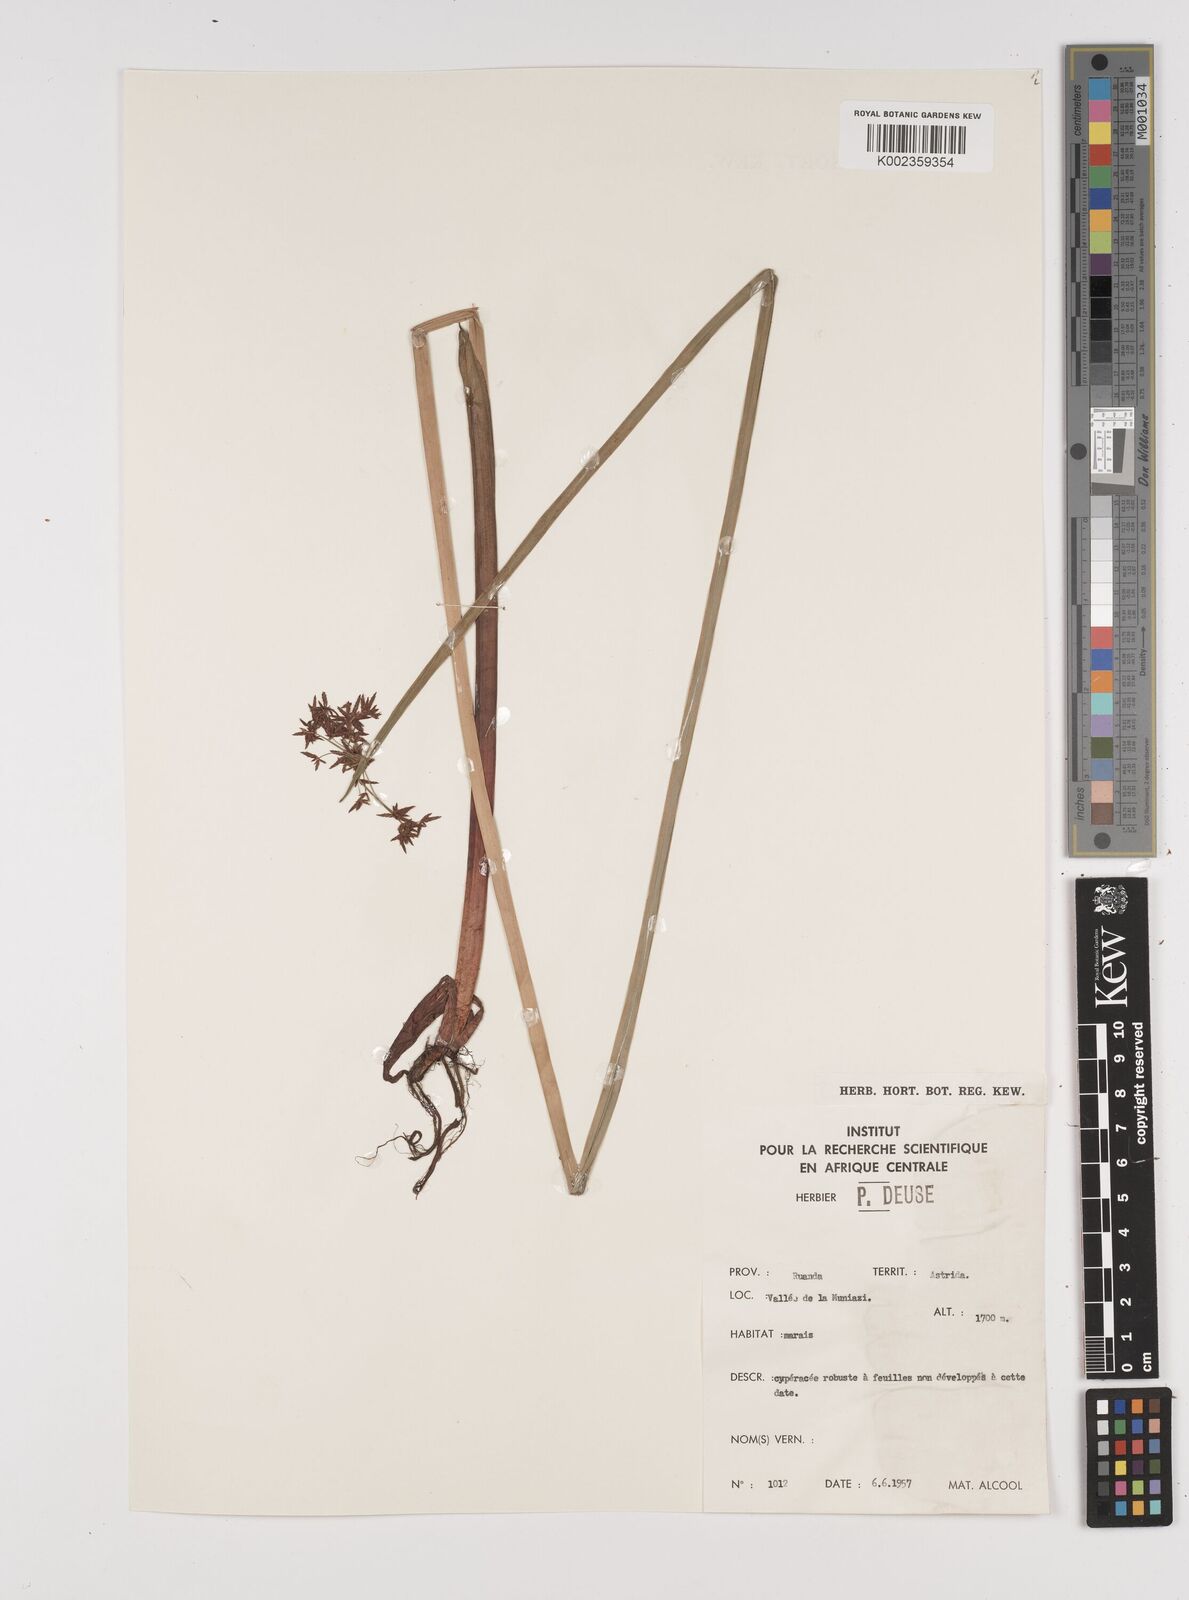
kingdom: Plantae
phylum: Tracheophyta
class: Liliopsida
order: Poales
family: Cyperaceae
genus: Cyperus
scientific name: Cyperus platycaulis
